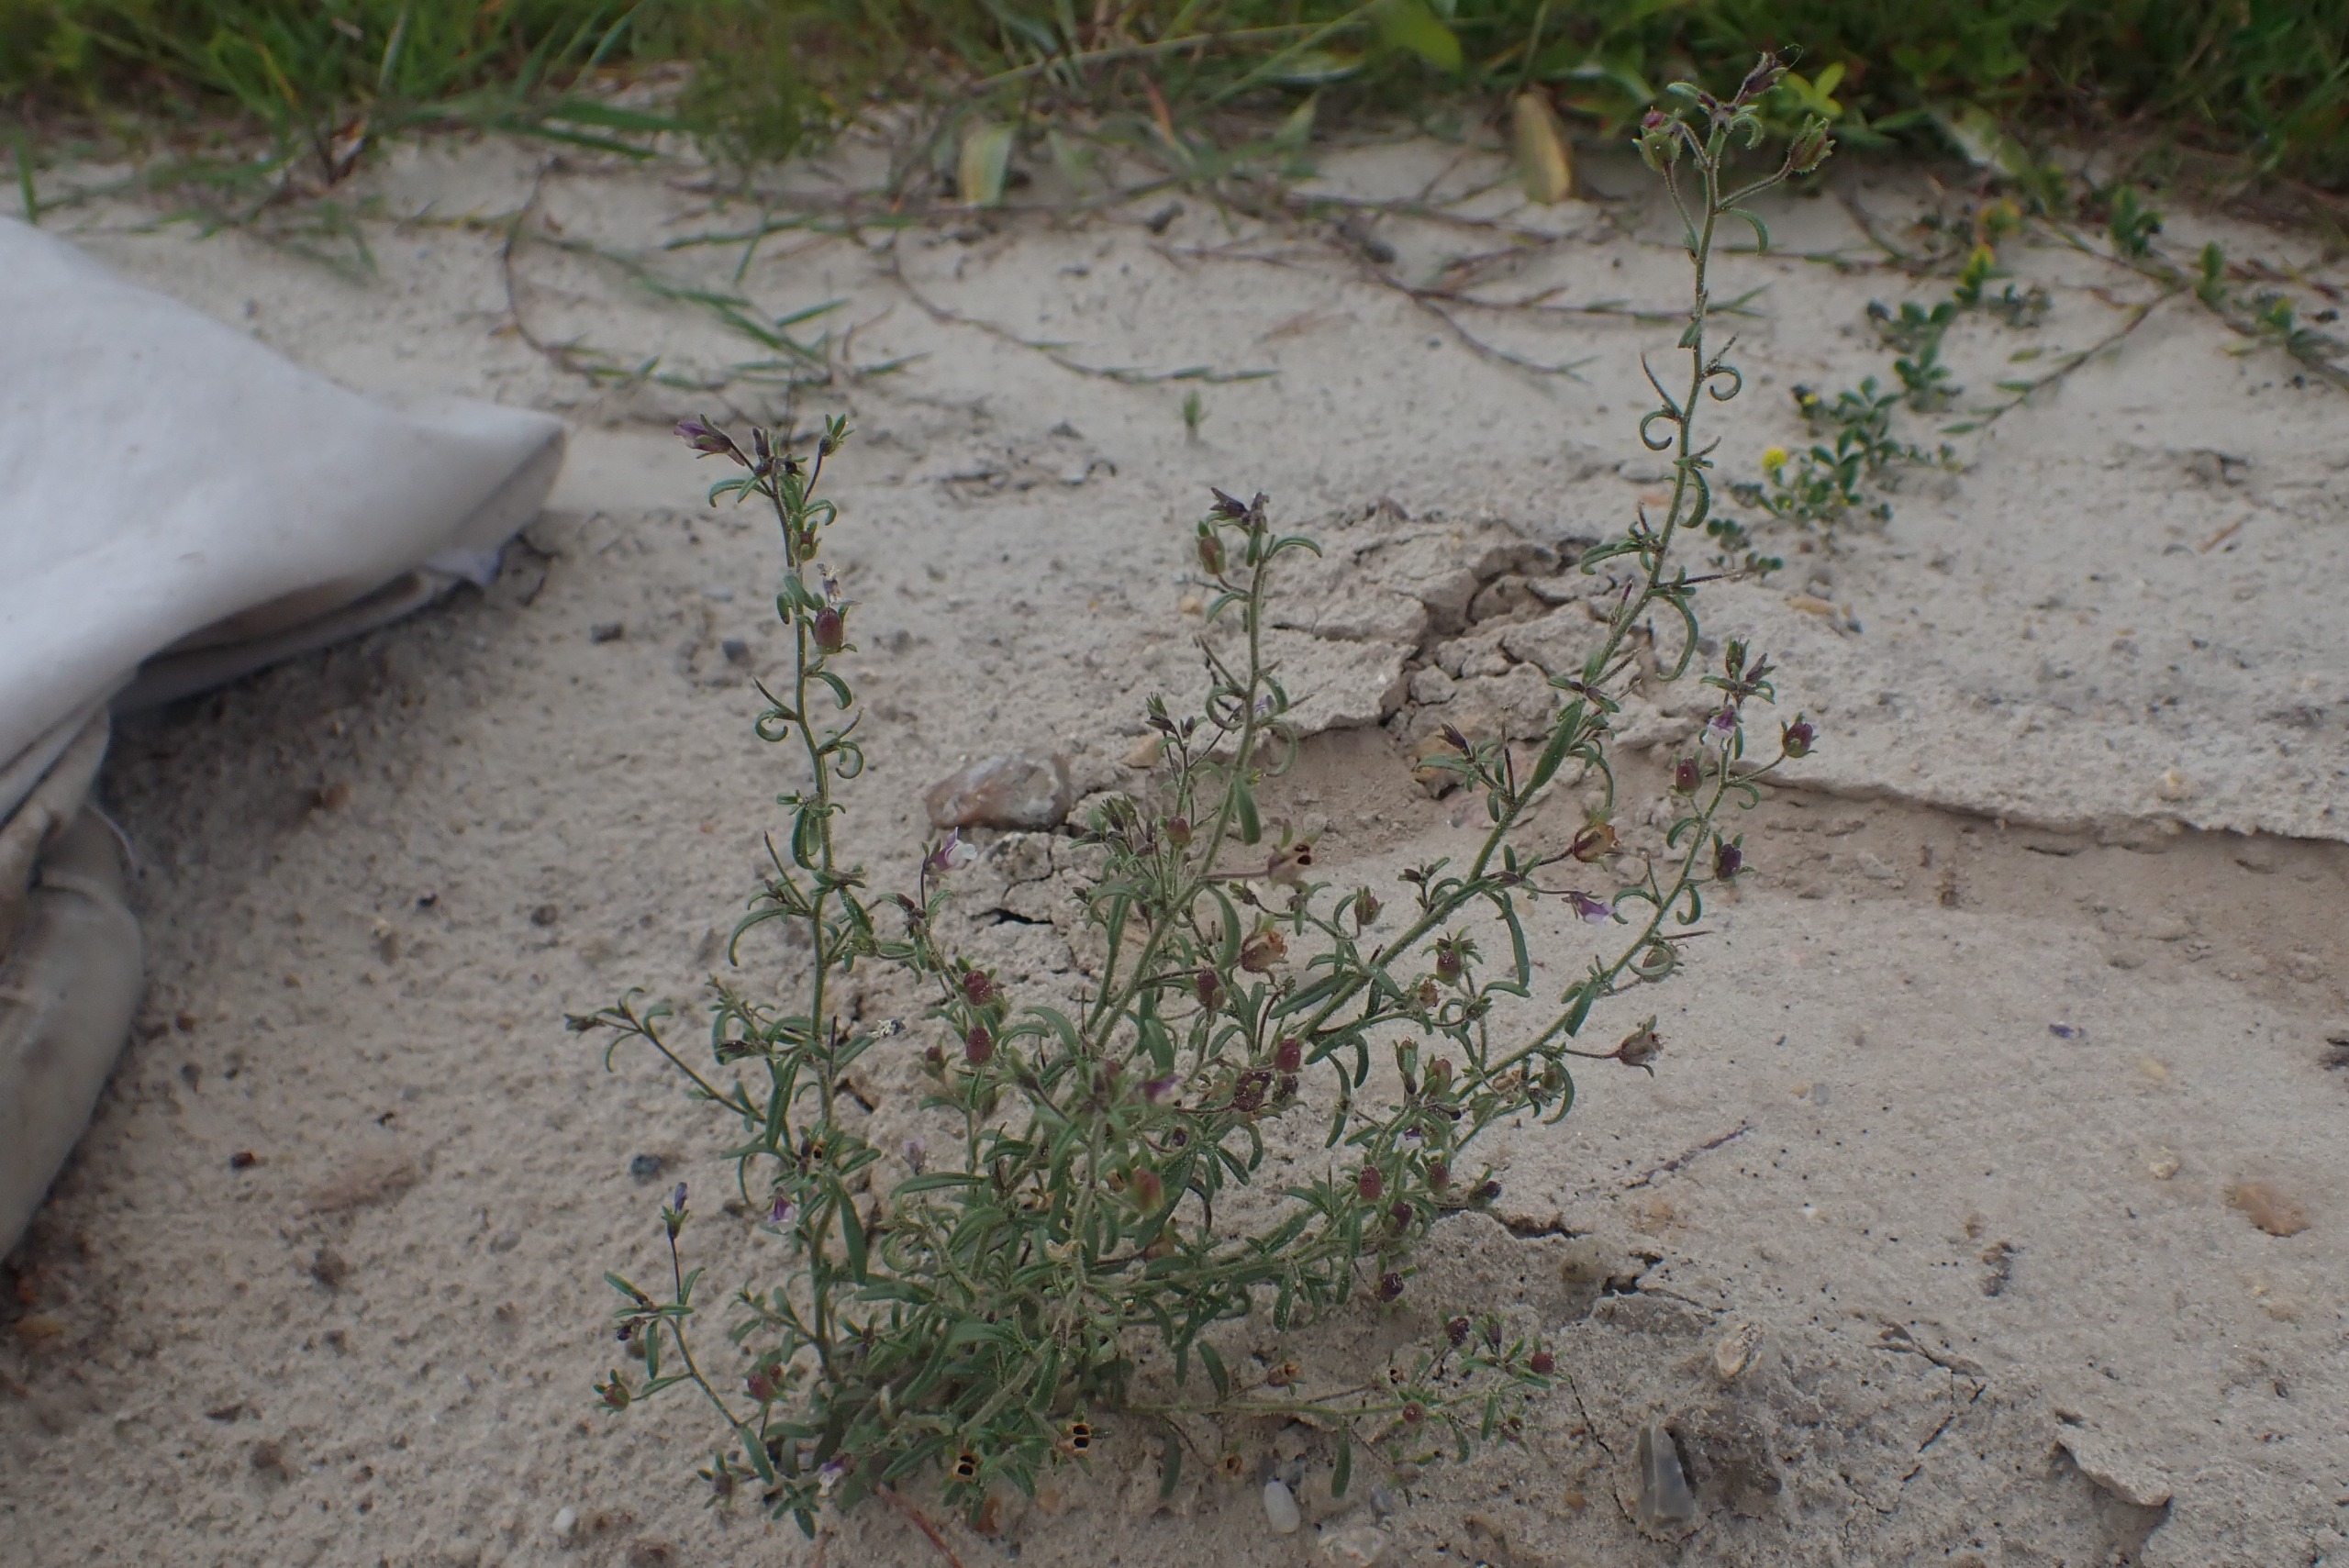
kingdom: Plantae
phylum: Tracheophyta
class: Magnoliopsida
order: Lamiales
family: Plantaginaceae
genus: Chaenorhinum
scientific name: Chaenorhinum minus
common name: Liden torskemund
